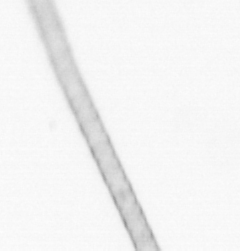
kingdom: Chromista
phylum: Ochrophyta
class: Bacillariophyceae
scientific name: Bacillariophyceae
